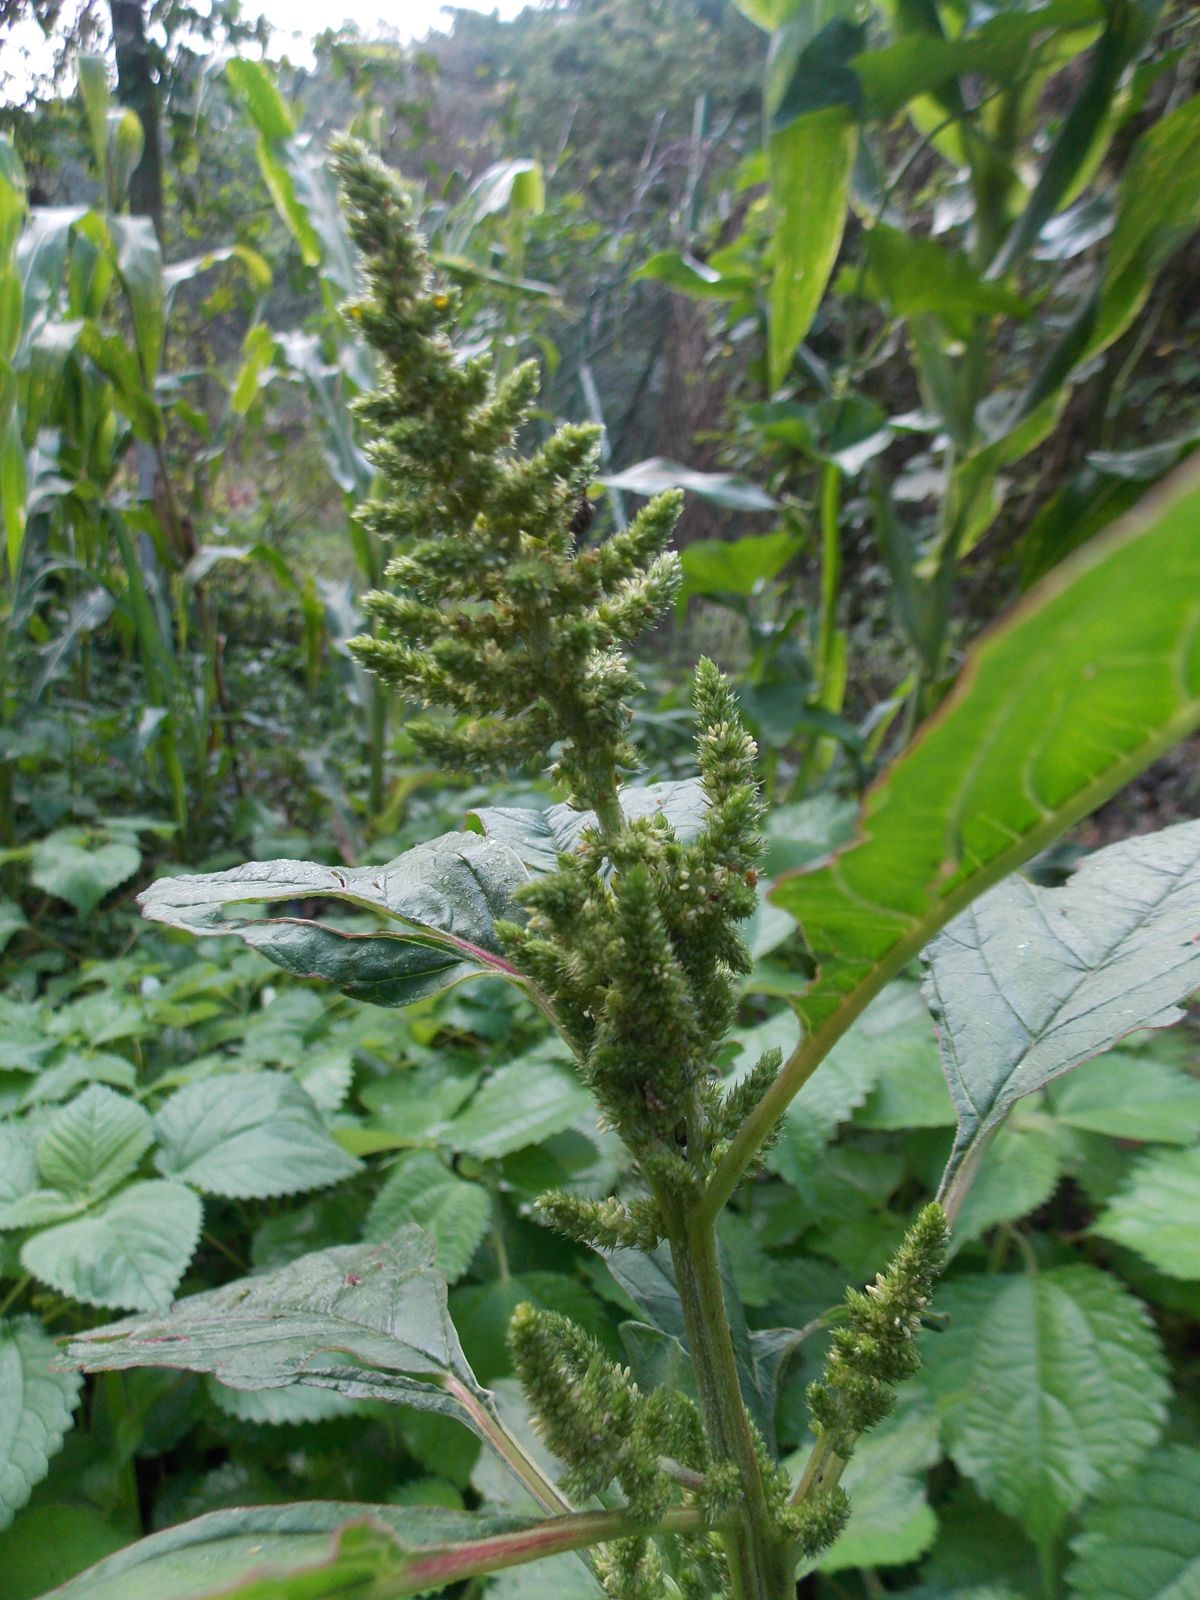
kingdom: Plantae
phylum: Tracheophyta
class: Magnoliopsida
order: Caryophyllales
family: Amaranthaceae
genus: Amaranthus
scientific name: Amaranthus hybridus
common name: Green amaranth
